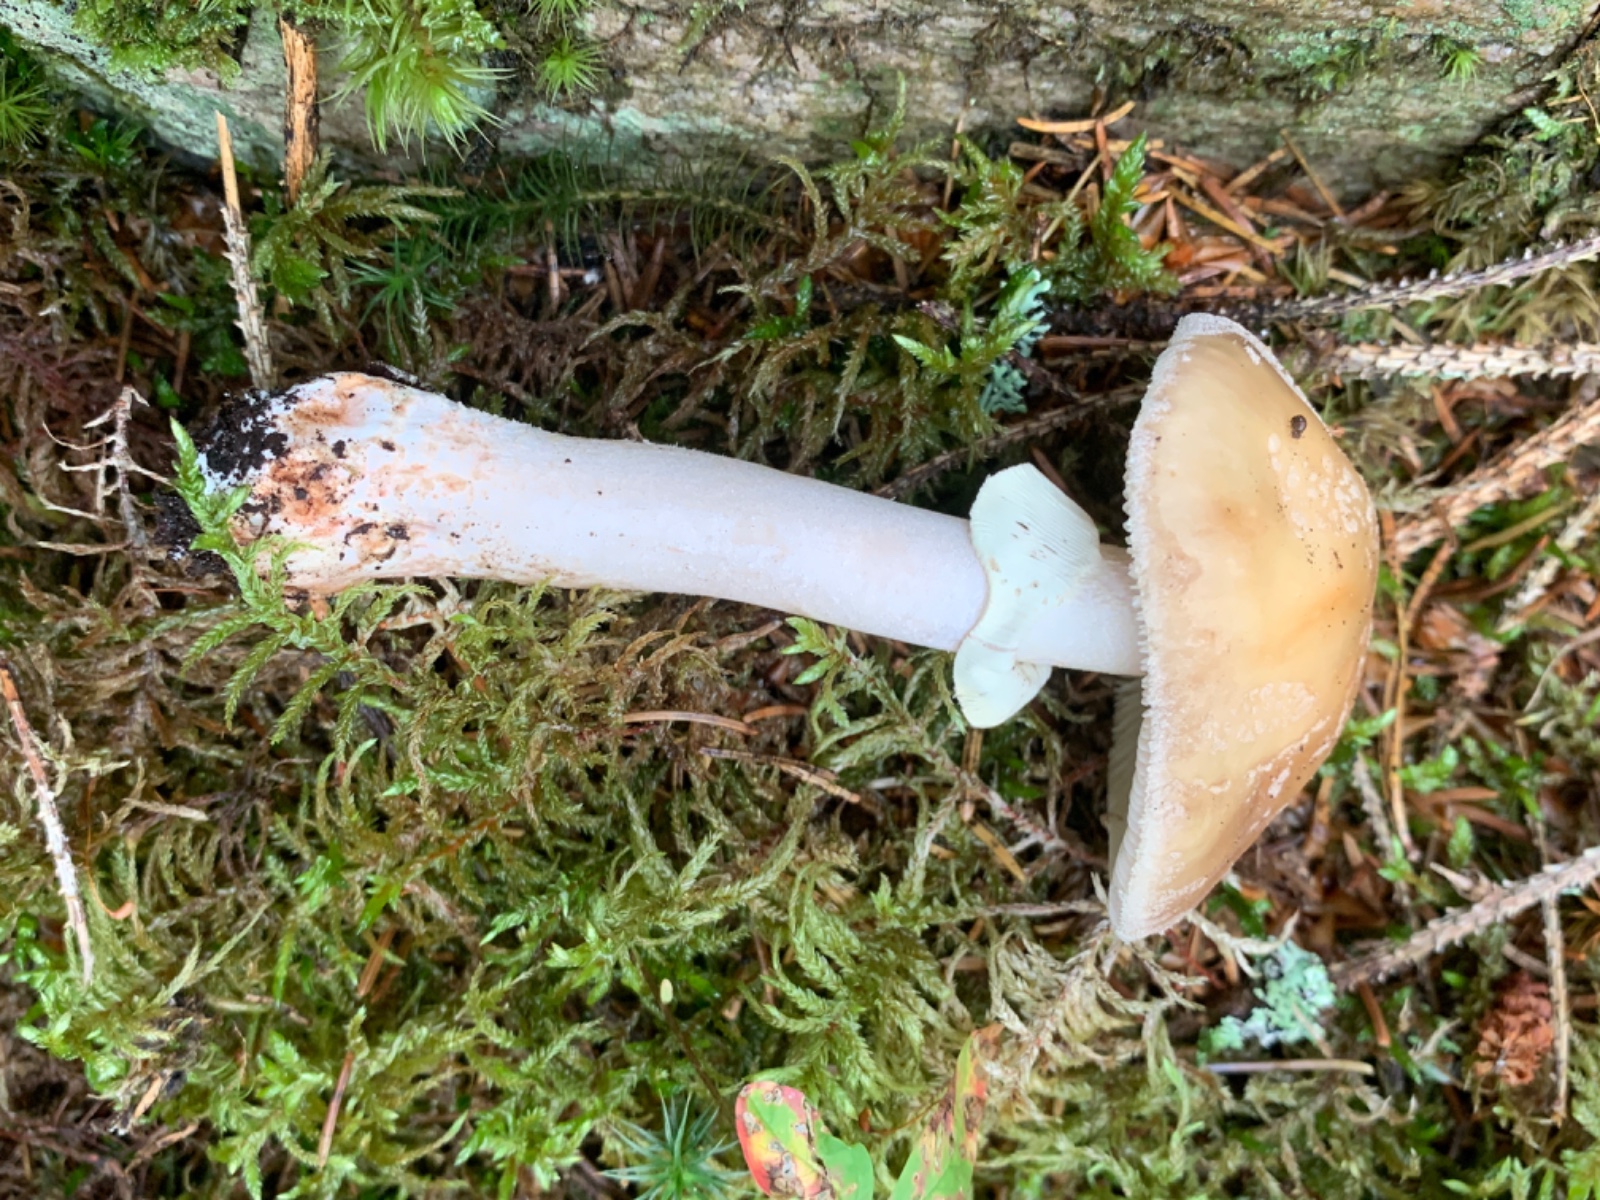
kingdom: Fungi
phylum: Basidiomycota
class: Agaricomycetes
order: Agaricales
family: Amanitaceae
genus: Amanita
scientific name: Amanita rubescens
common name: rødmende fluesvamp
